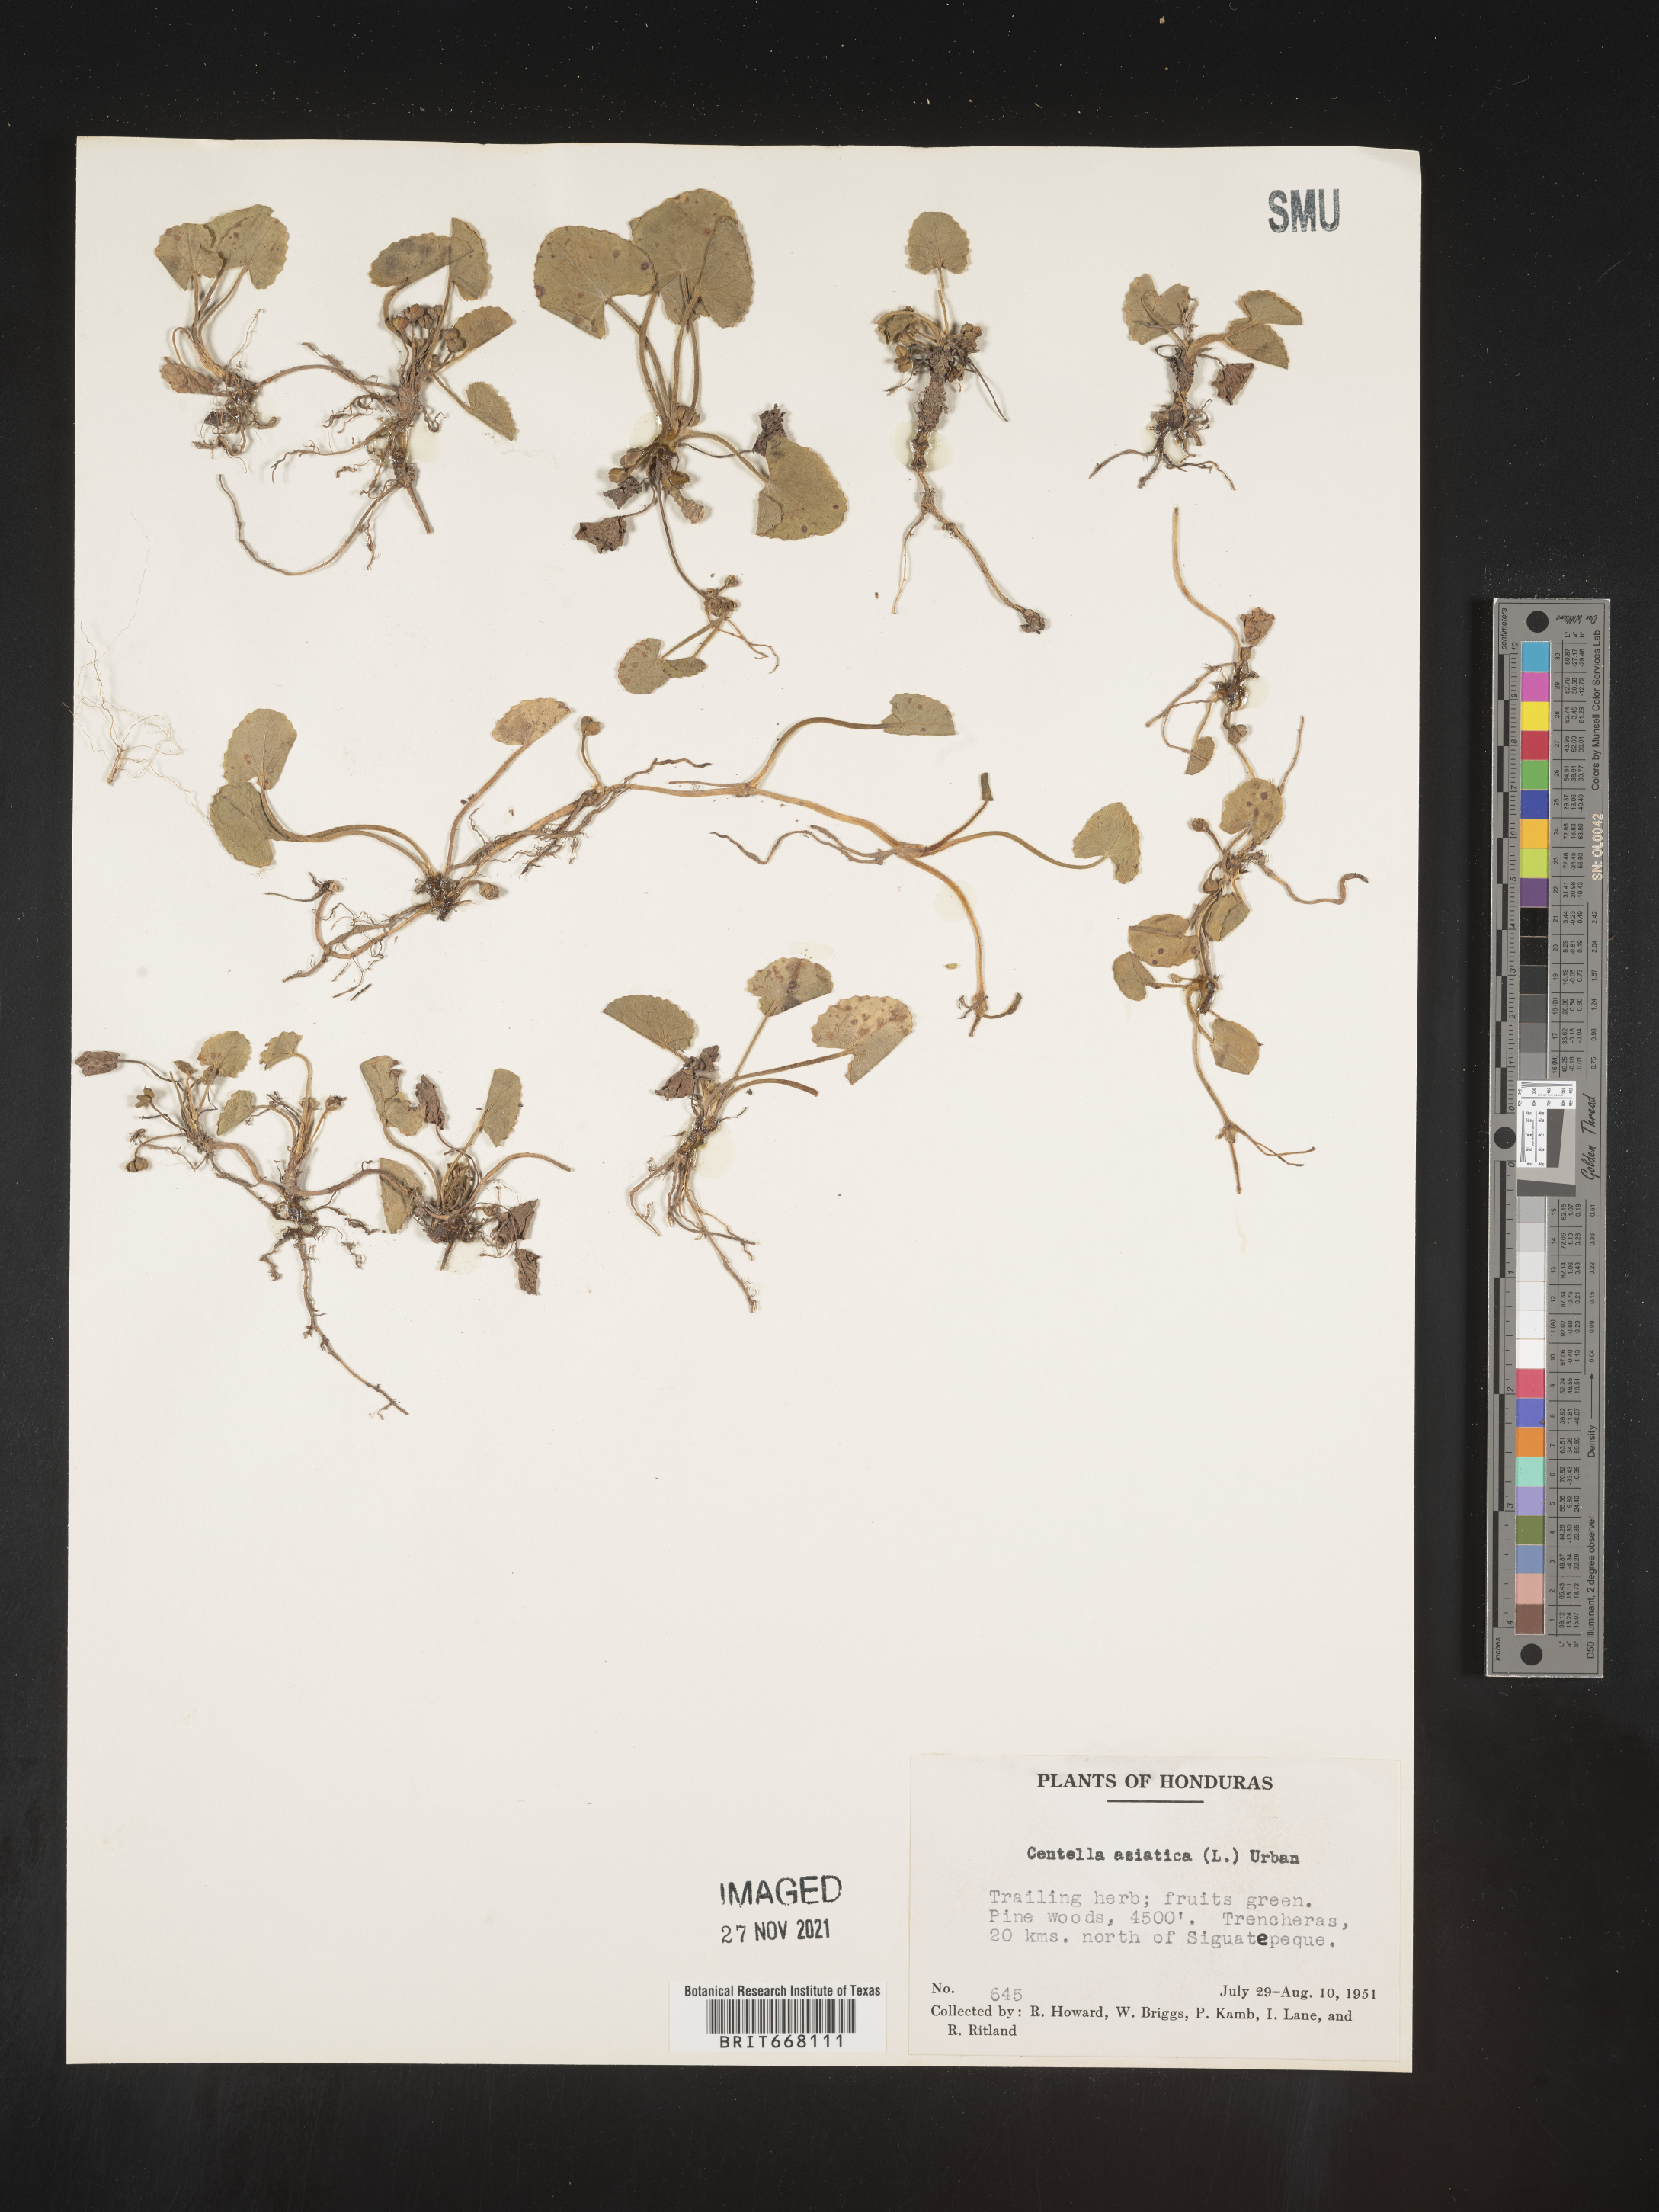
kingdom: Plantae
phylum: Tracheophyta
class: Magnoliopsida
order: Apiales
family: Apiaceae
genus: Centella
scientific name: Centella
